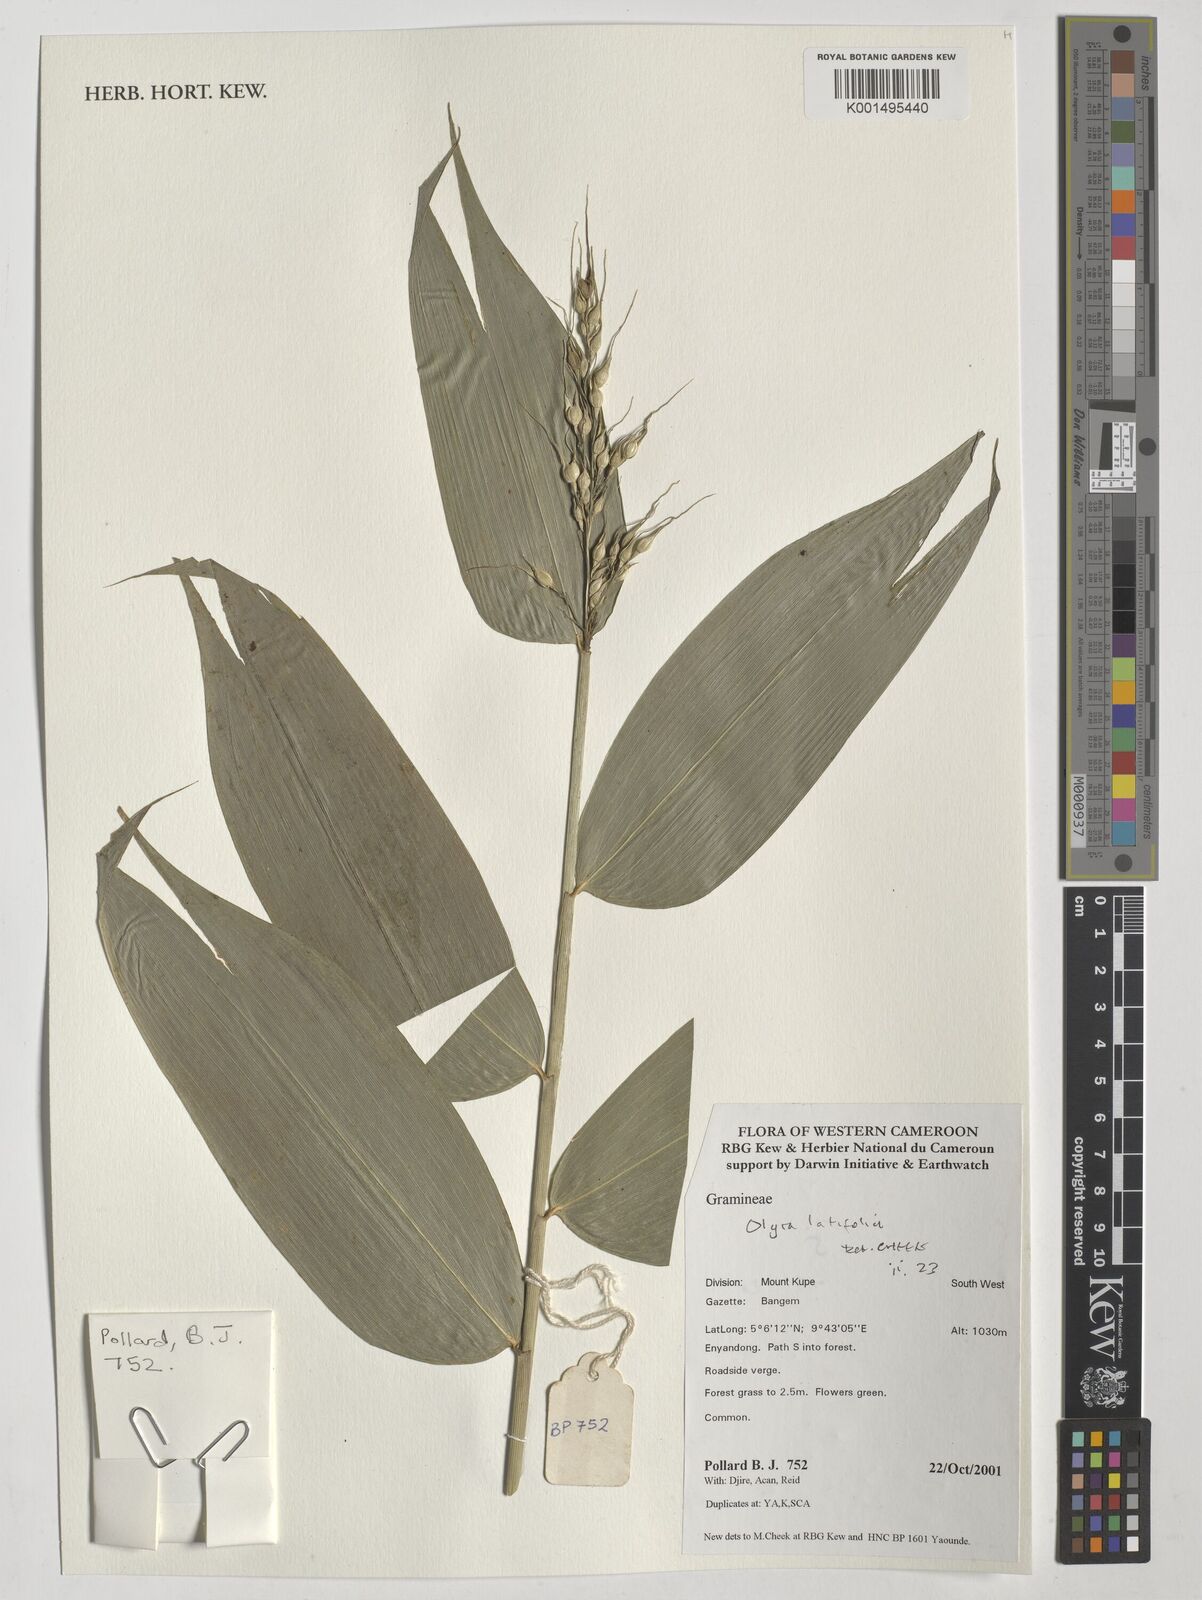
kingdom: Plantae
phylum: Tracheophyta
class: Liliopsida
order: Poales
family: Poaceae
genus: Olyra
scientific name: Olyra latifolia
